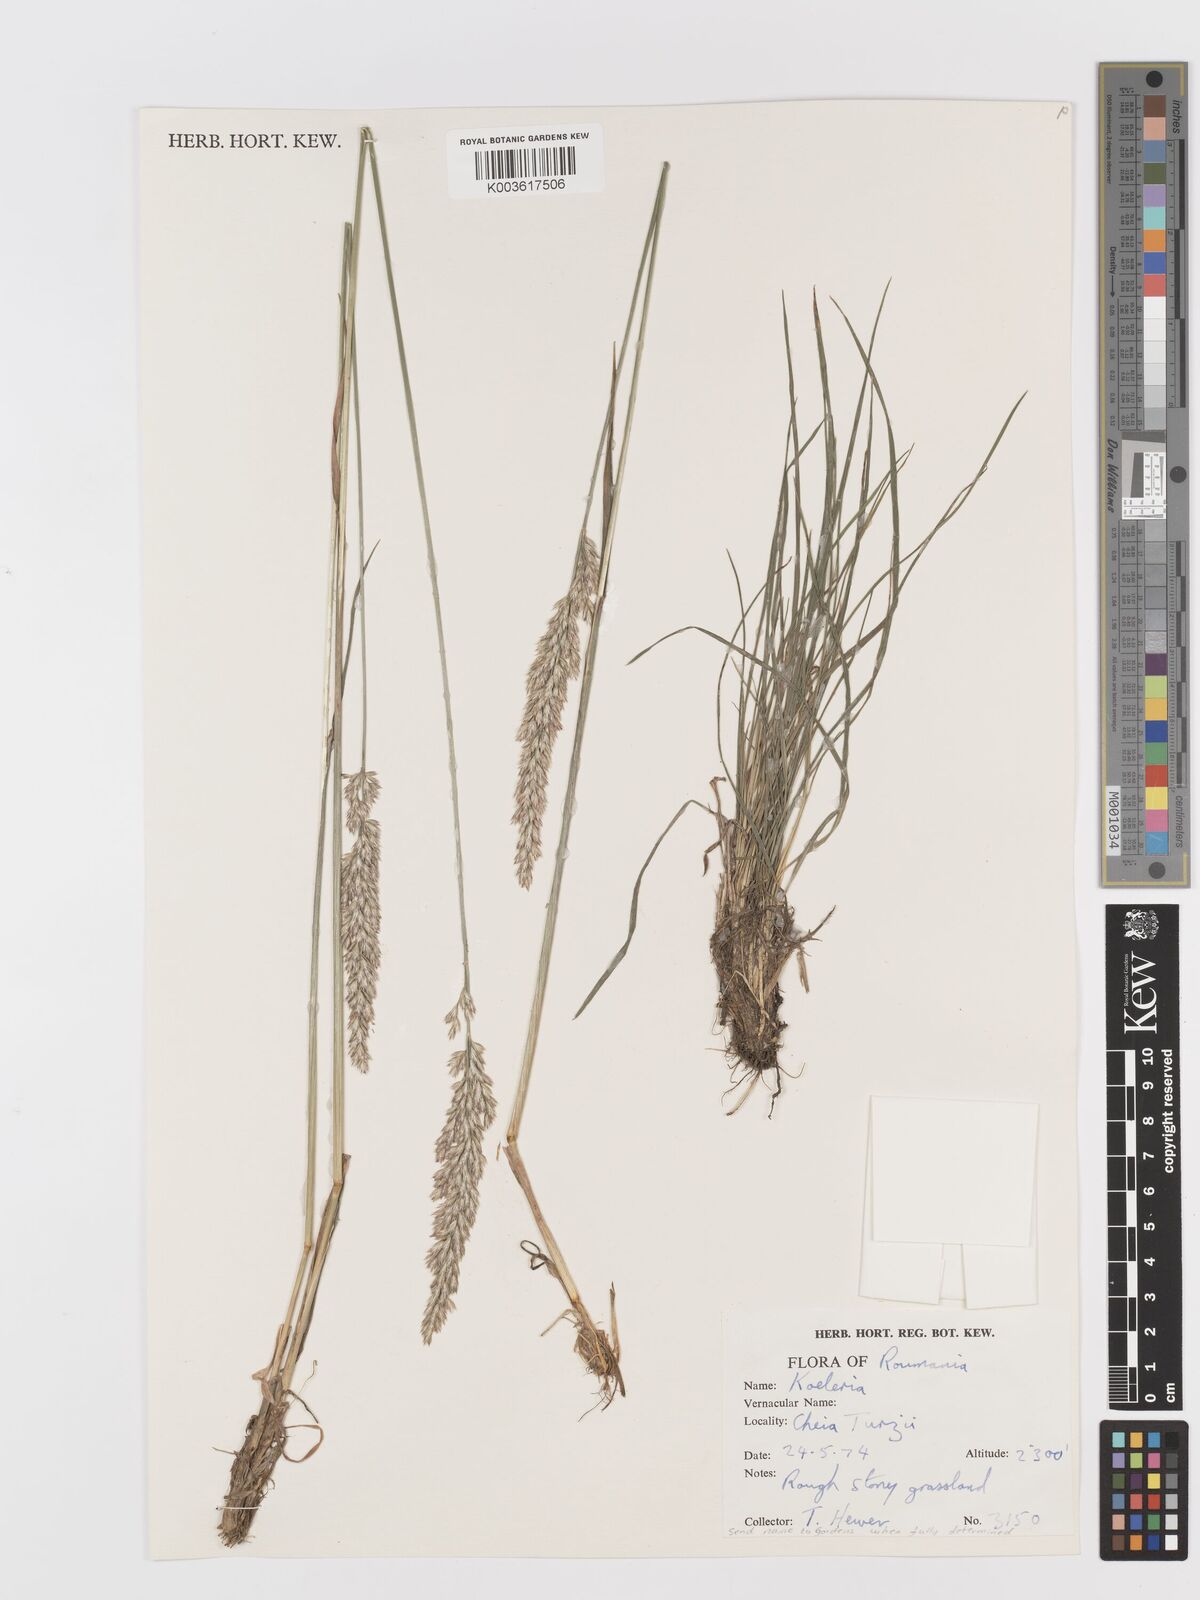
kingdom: Plantae
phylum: Tracheophyta
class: Liliopsida
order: Poales
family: Poaceae
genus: Koeleria
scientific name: Koeleria
